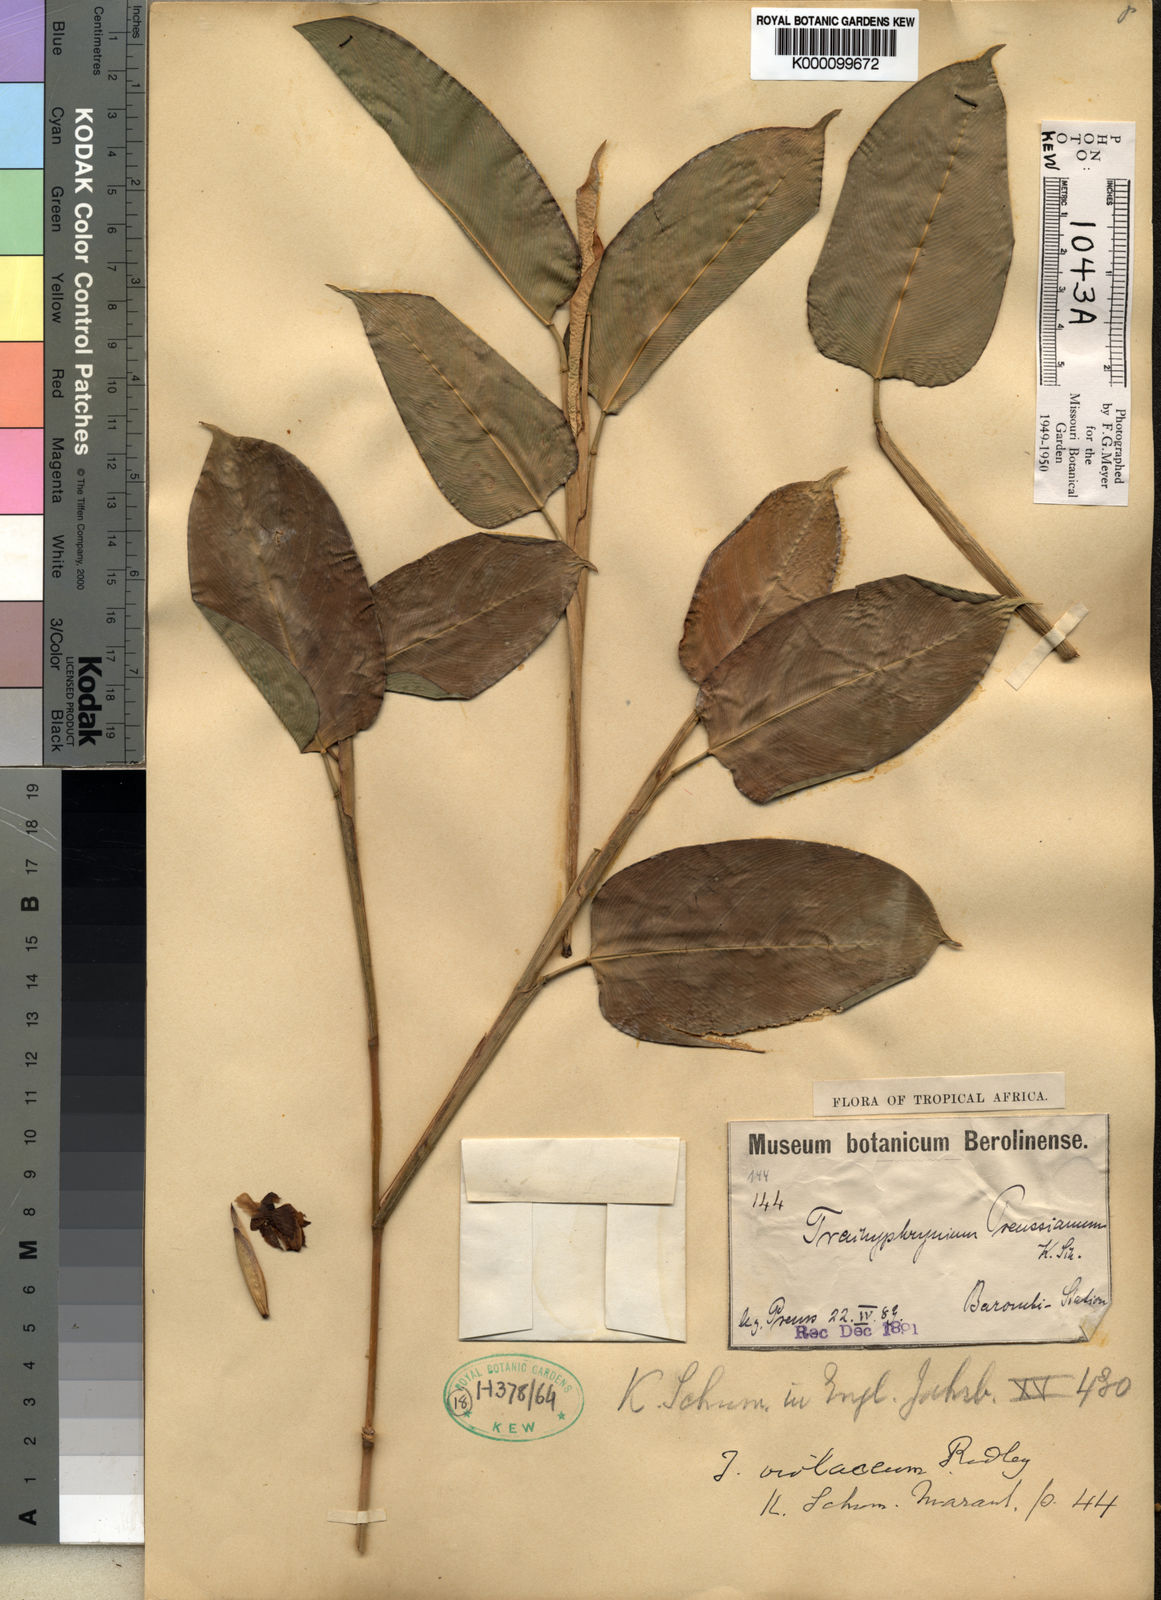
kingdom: Plantae
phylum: Tracheophyta
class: Liliopsida
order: Zingiberales
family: Marantaceae
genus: Hypselodelphys
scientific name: Hypselodelphys violacea
